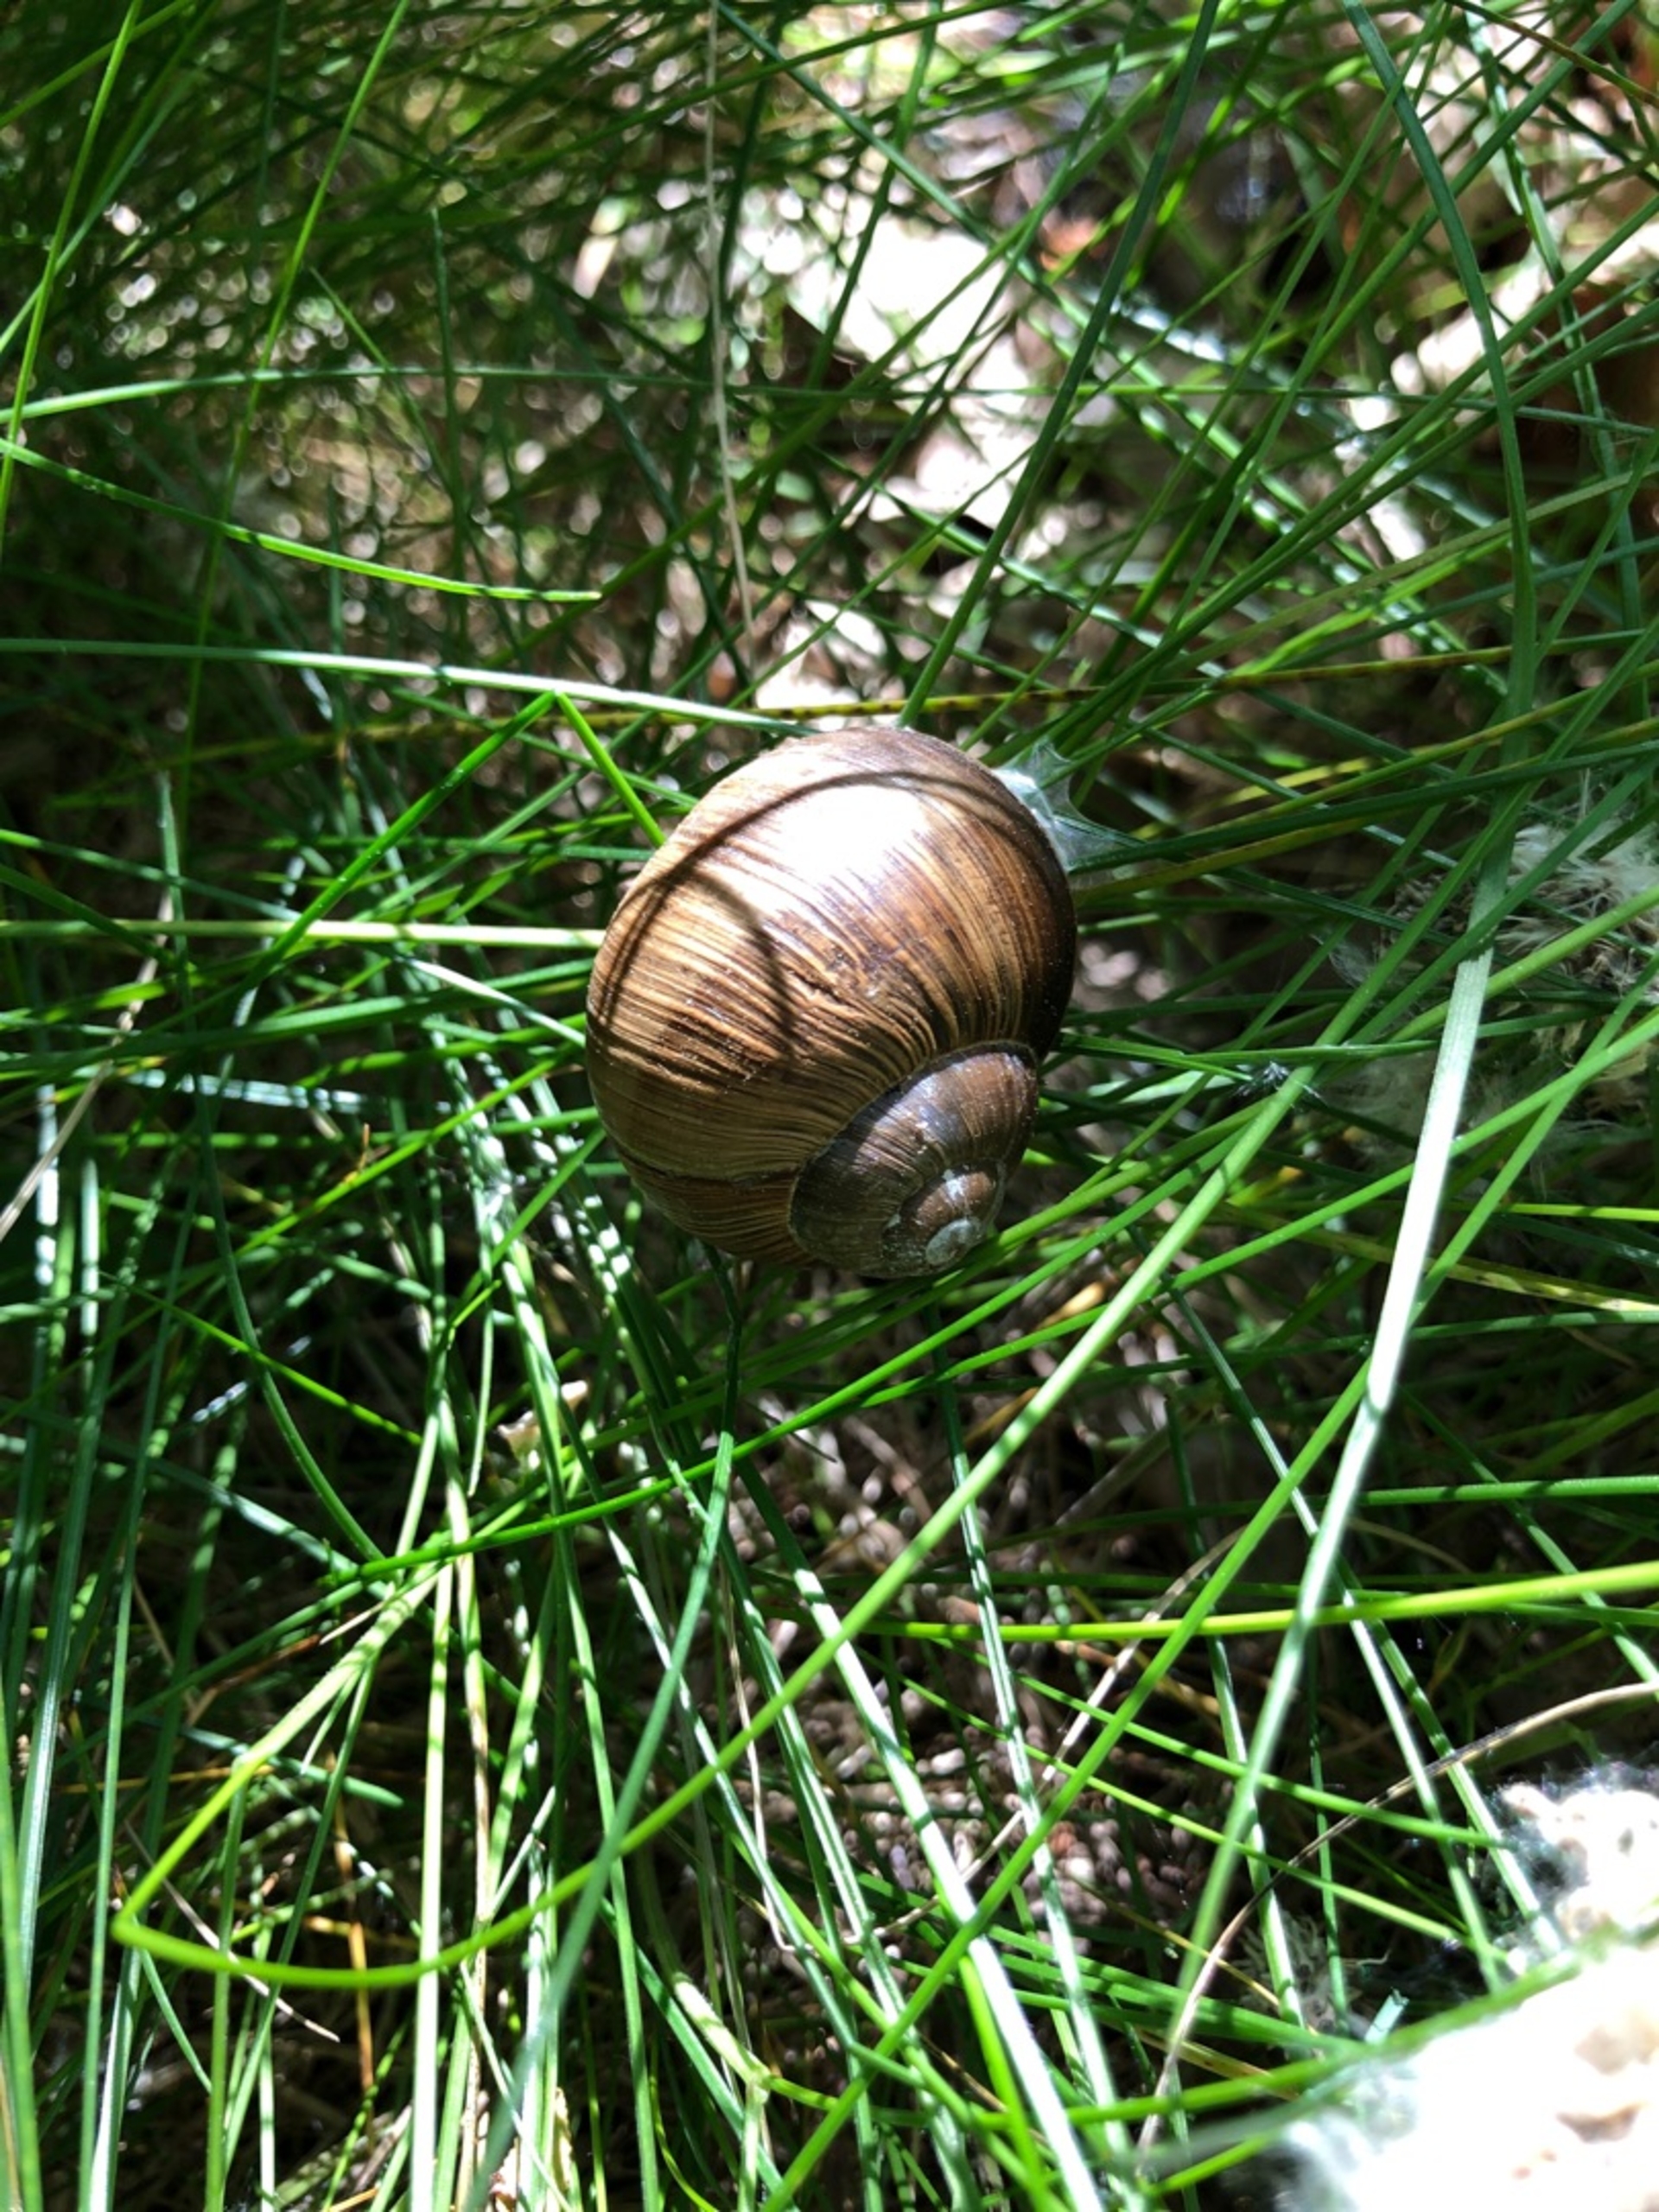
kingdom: Animalia
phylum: Mollusca
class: Gastropoda
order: Stylommatophora
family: Helicidae
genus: Helix
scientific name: Helix pomatia
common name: Vinbjergsnegl
